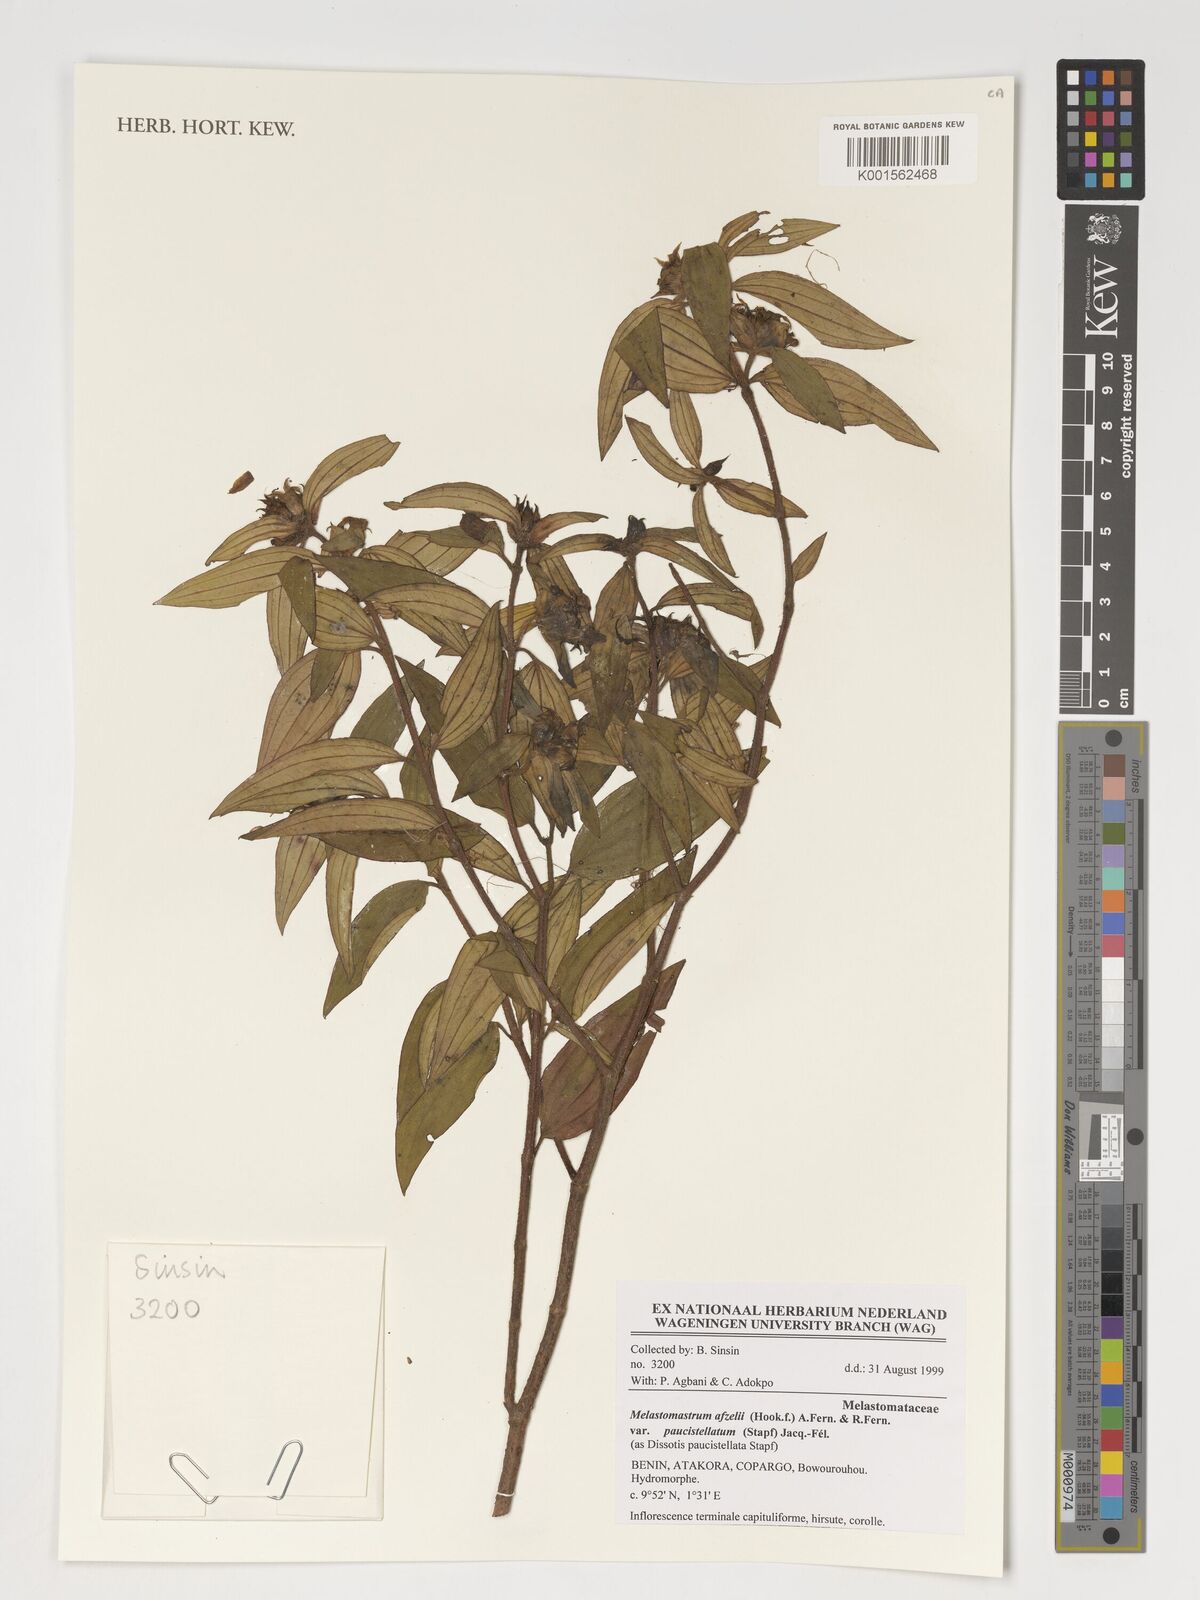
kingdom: Plantae
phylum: Tracheophyta
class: Magnoliopsida
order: Myrtales
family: Melastomataceae
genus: Melastomastrum
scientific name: Melastomastrum afzelii
